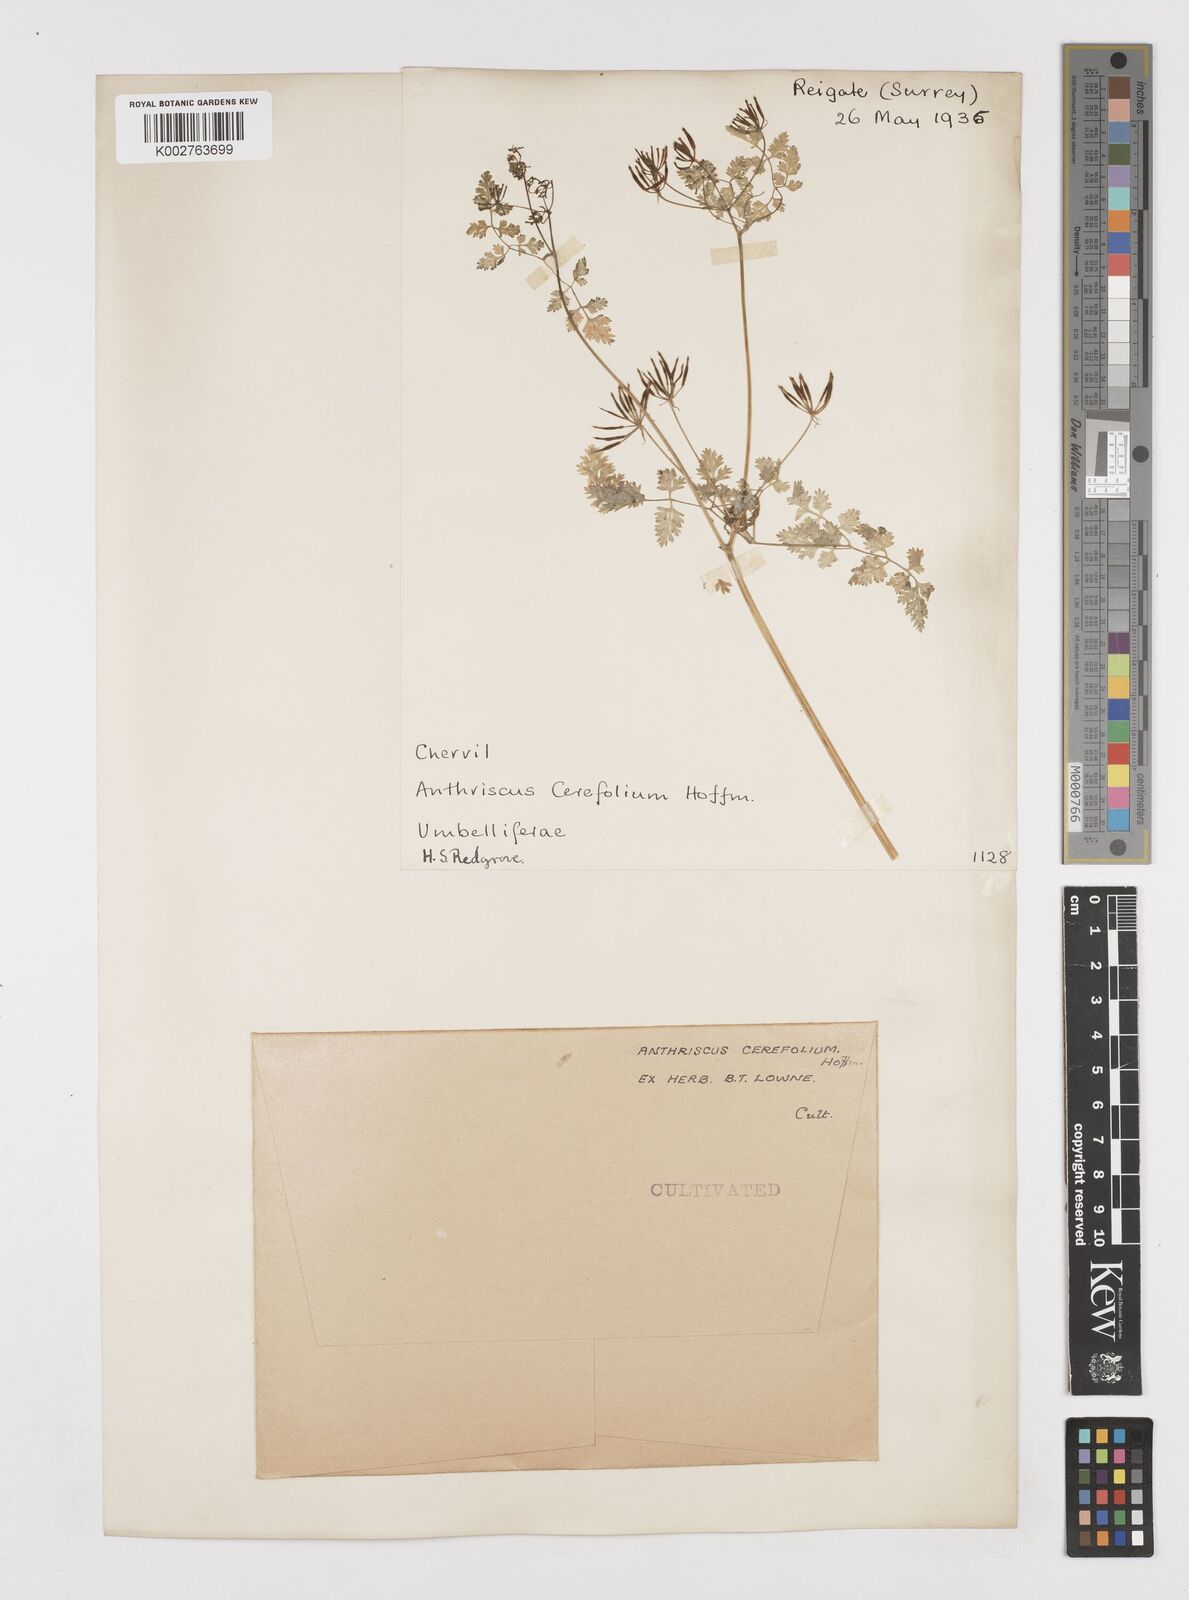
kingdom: Plantae
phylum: Tracheophyta
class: Magnoliopsida
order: Apiales
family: Apiaceae
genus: Anthriscus
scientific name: Anthriscus cerefolium
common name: Garden chervil
